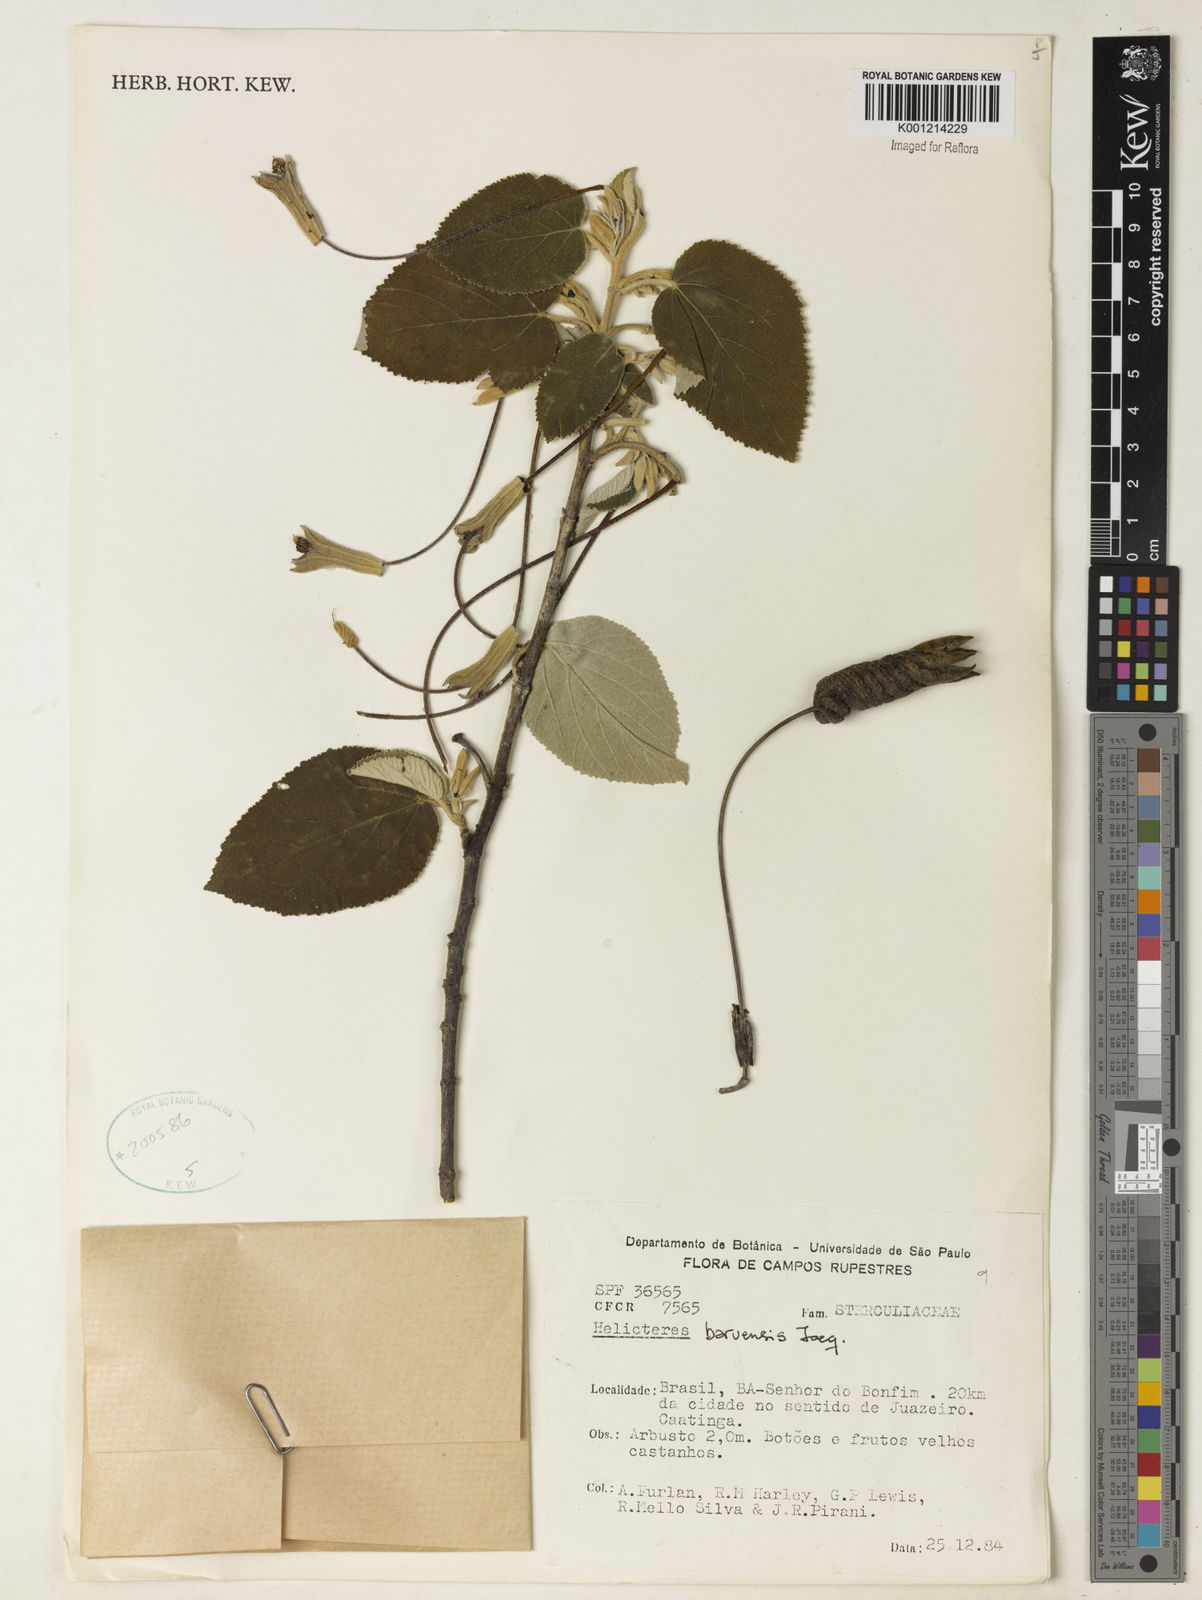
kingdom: Plantae
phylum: Tracheophyta
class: Magnoliopsida
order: Malvales
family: Malvaceae
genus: Helicteres
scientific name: Helicteres baruensis
